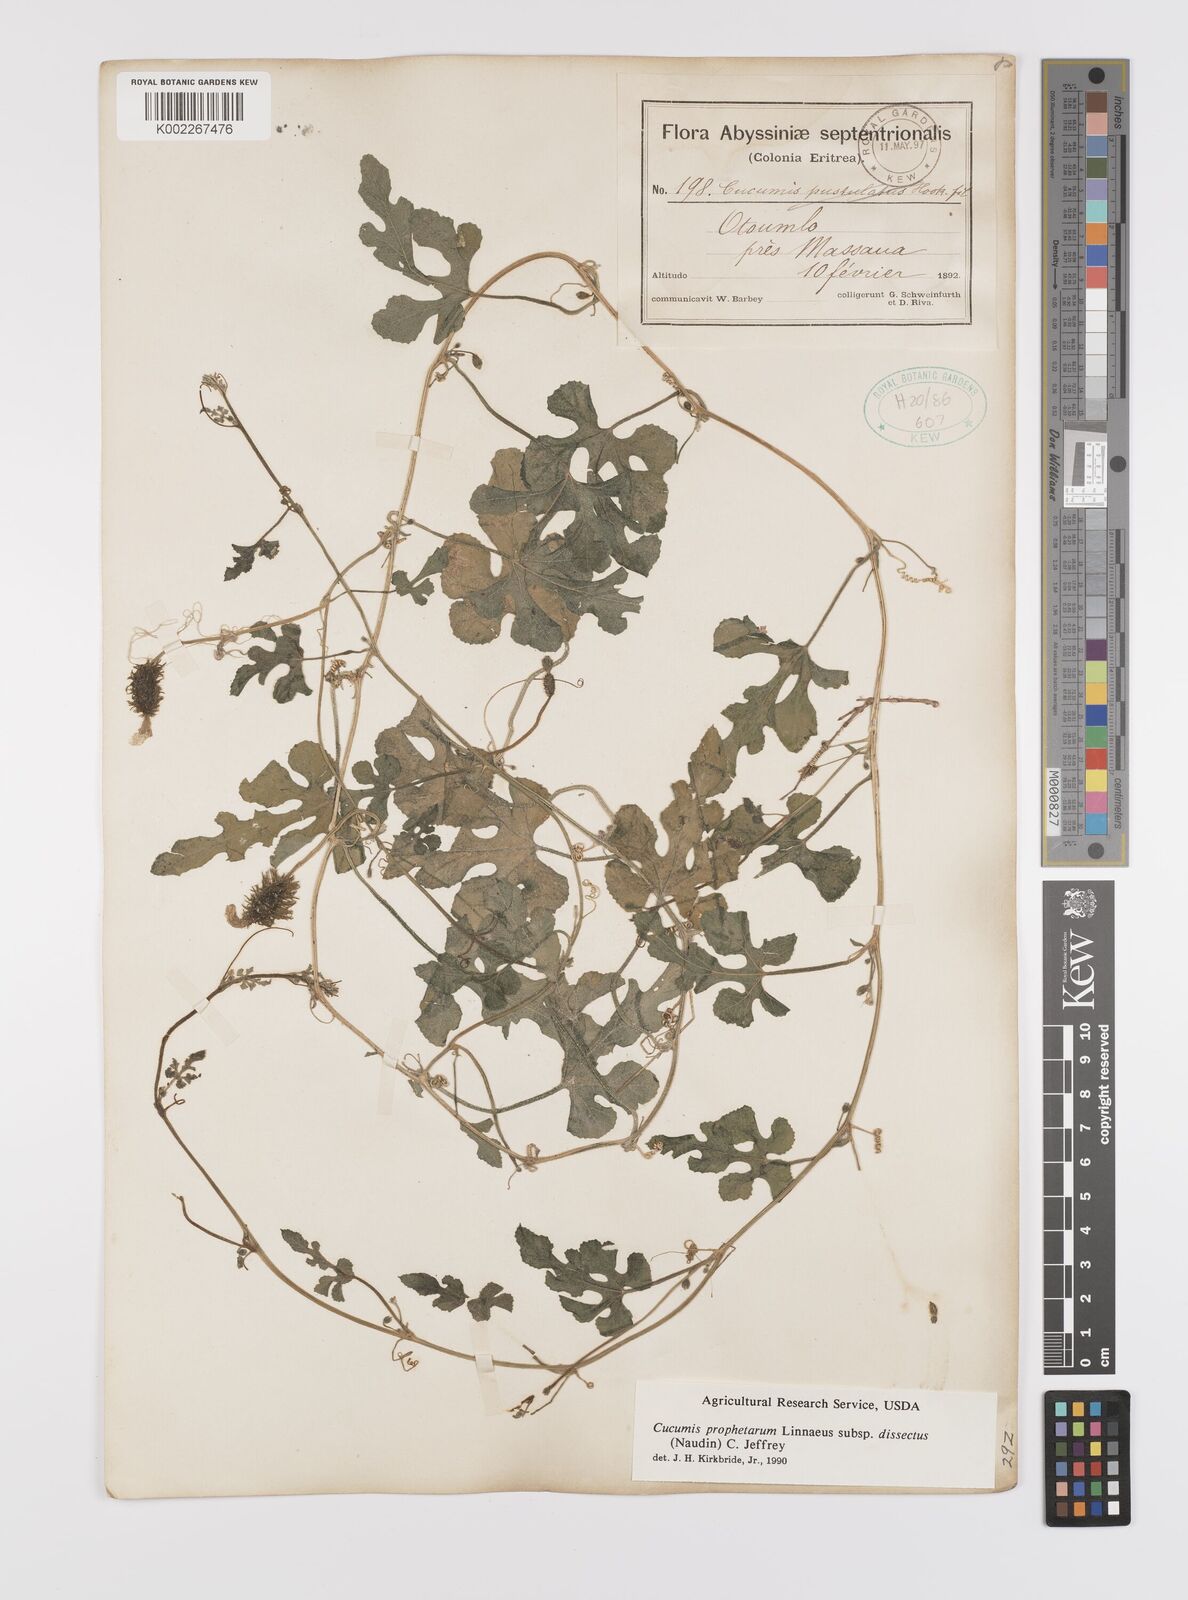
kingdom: Plantae
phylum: Tracheophyta
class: Magnoliopsida
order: Cucurbitales
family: Cucurbitaceae
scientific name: Cucurbitaceae
